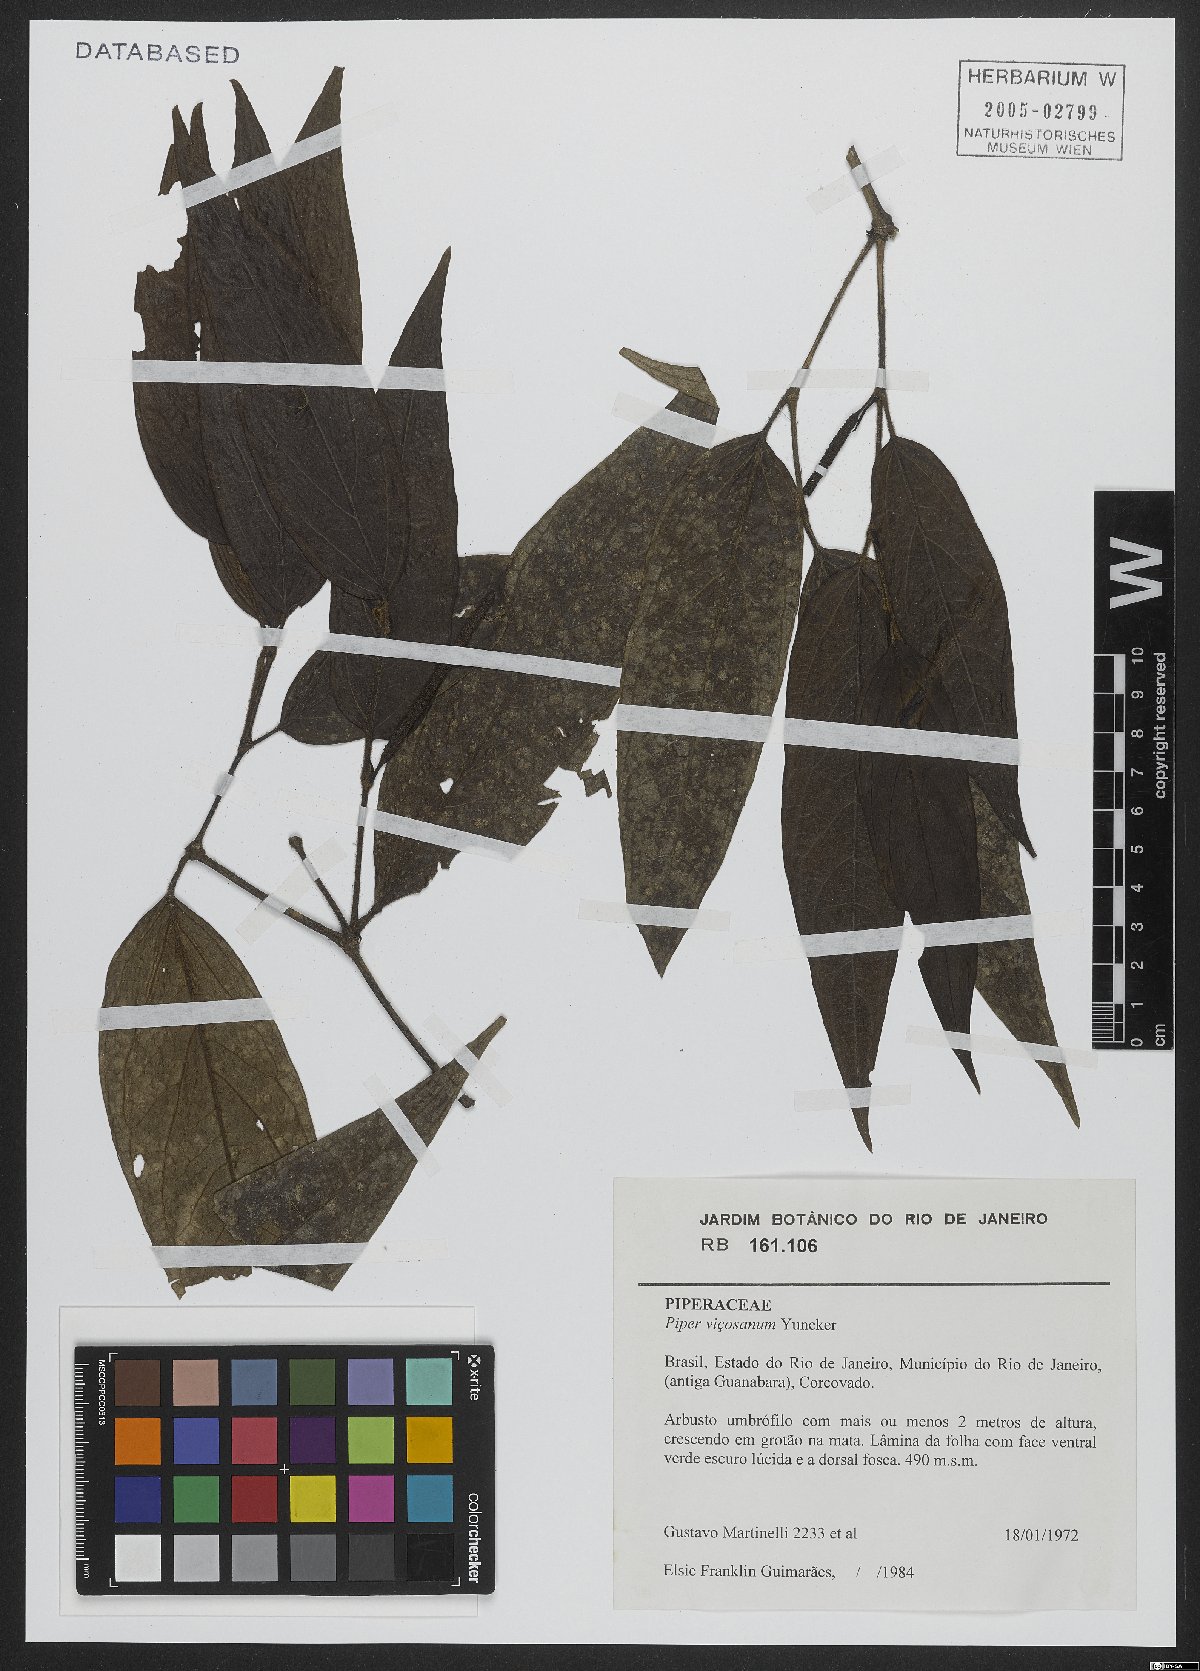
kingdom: Plantae
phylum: Tracheophyta
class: Magnoliopsida
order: Piperales
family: Piperaceae
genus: Piper
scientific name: Piper vicosanum
